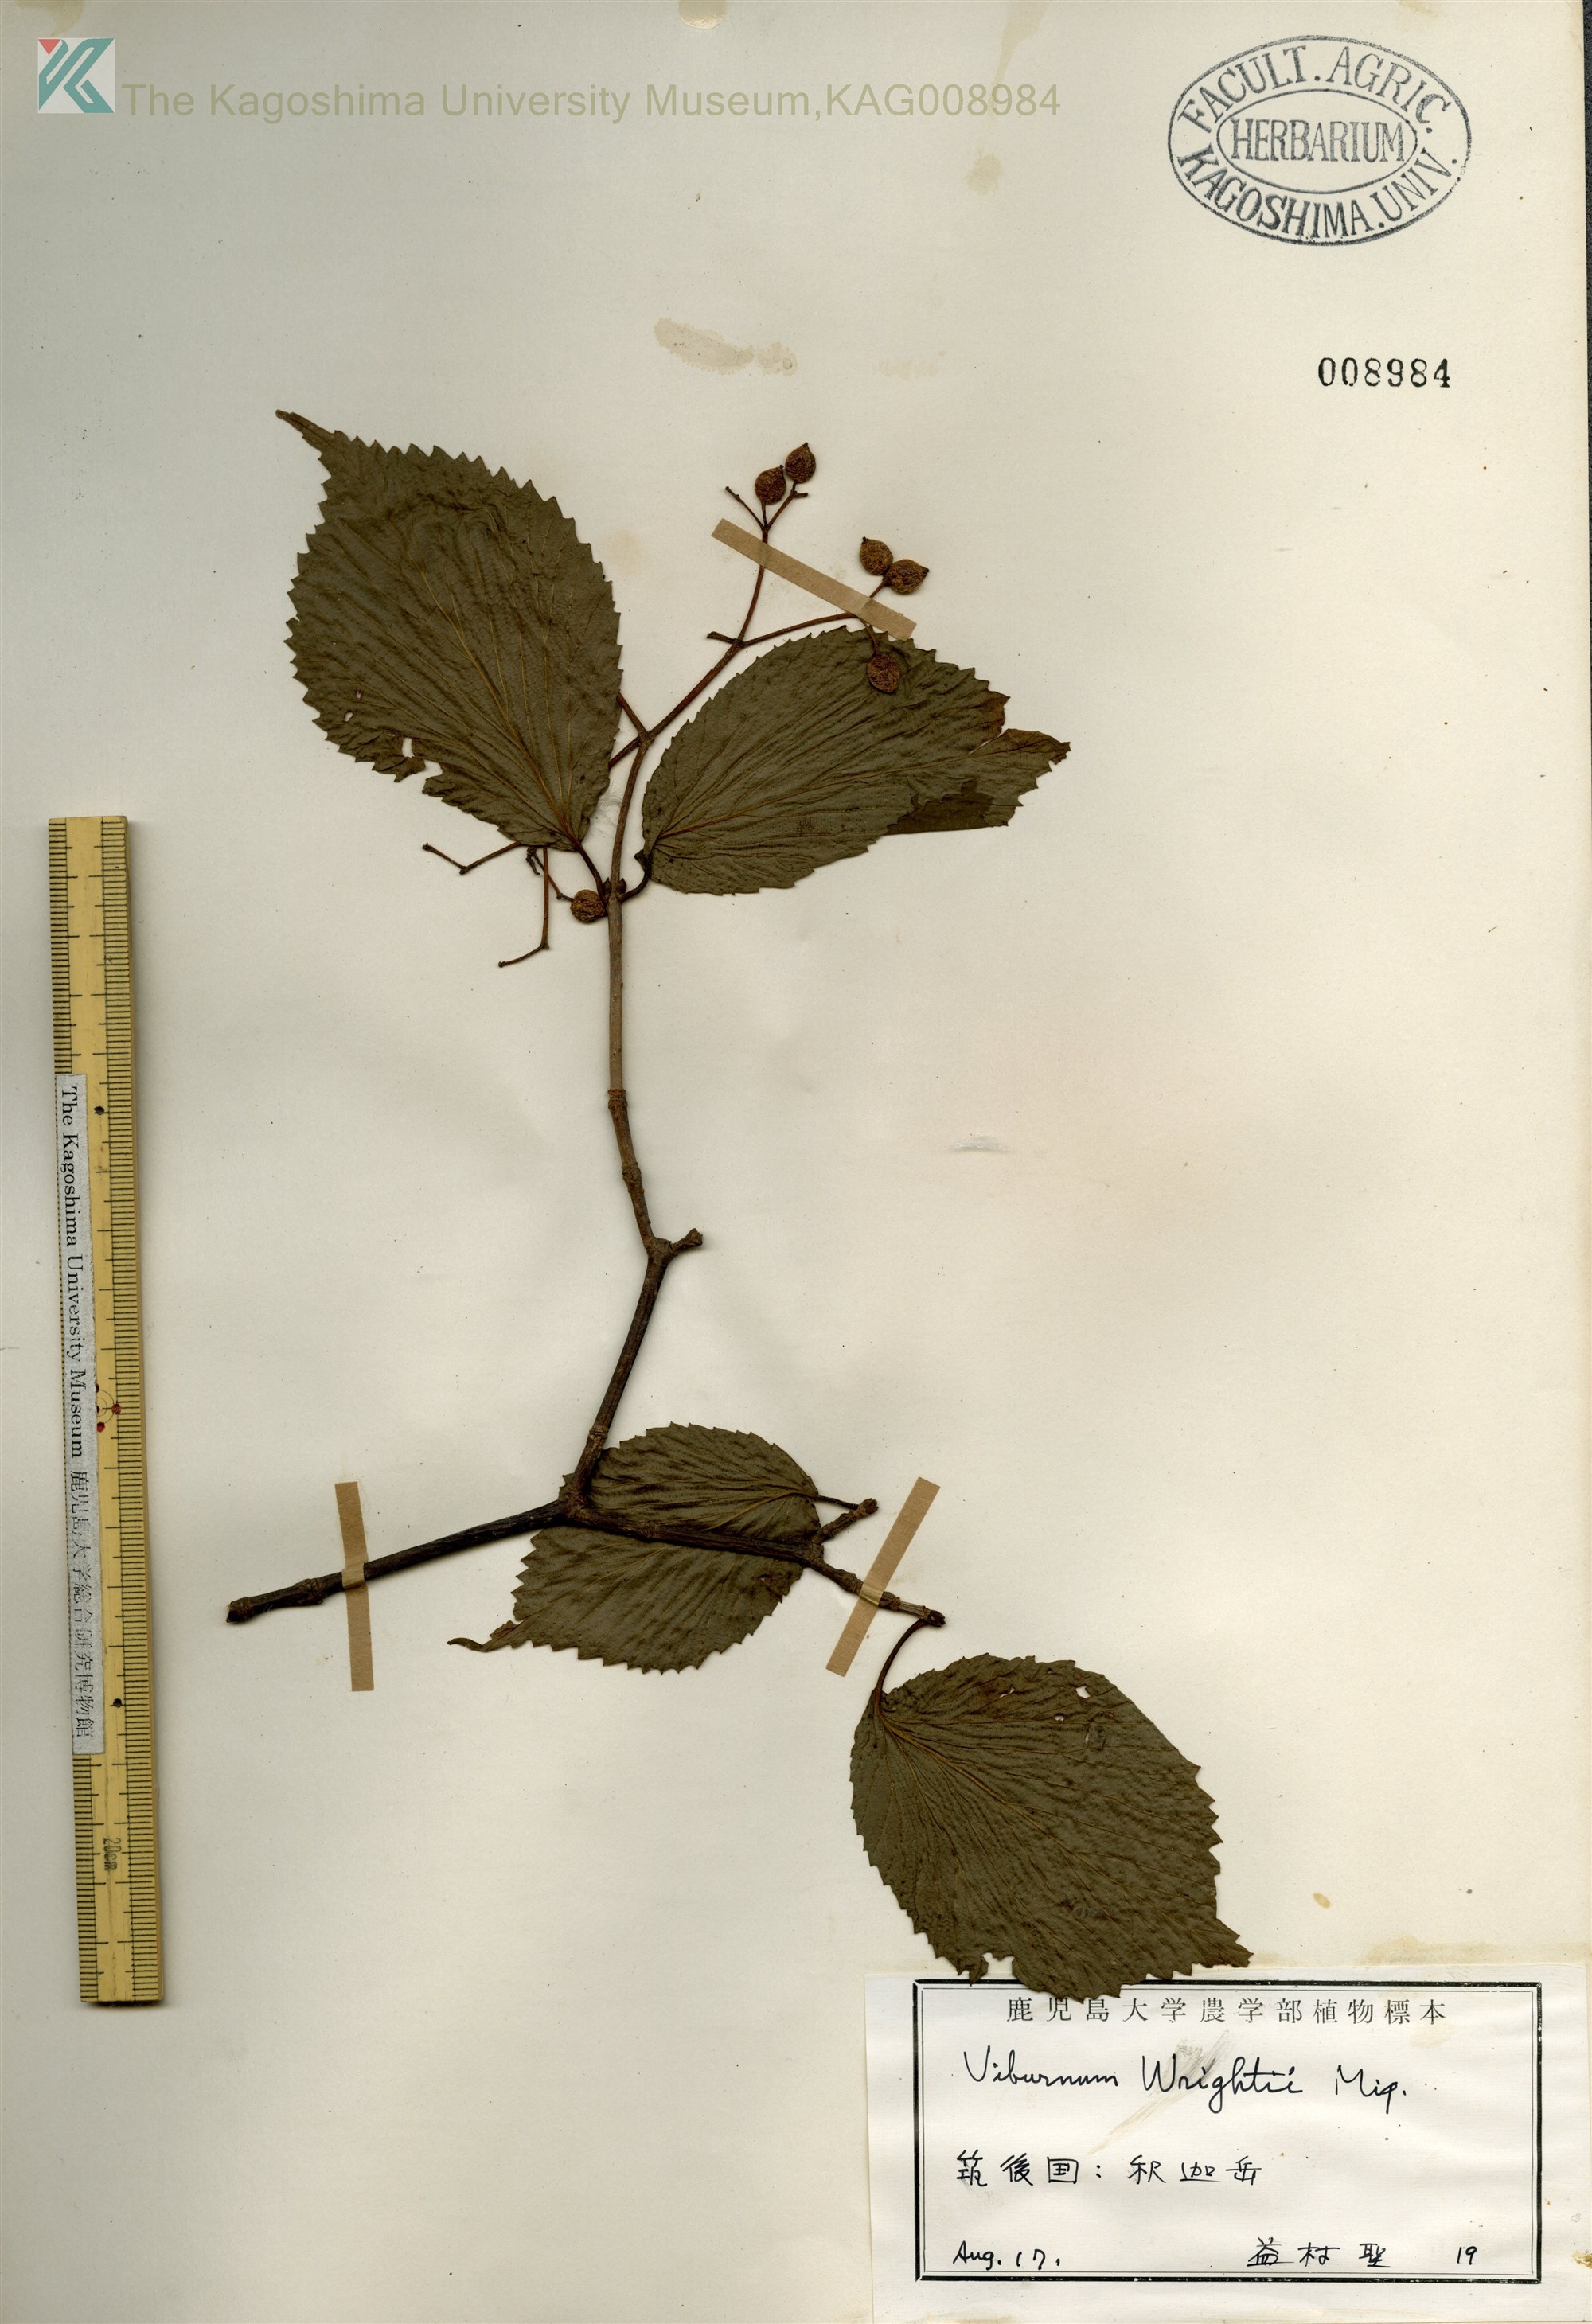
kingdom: Plantae
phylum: Tracheophyta
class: Magnoliopsida
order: Dipsacales
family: Viburnaceae
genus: Viburnum
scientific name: Viburnum wrightii
